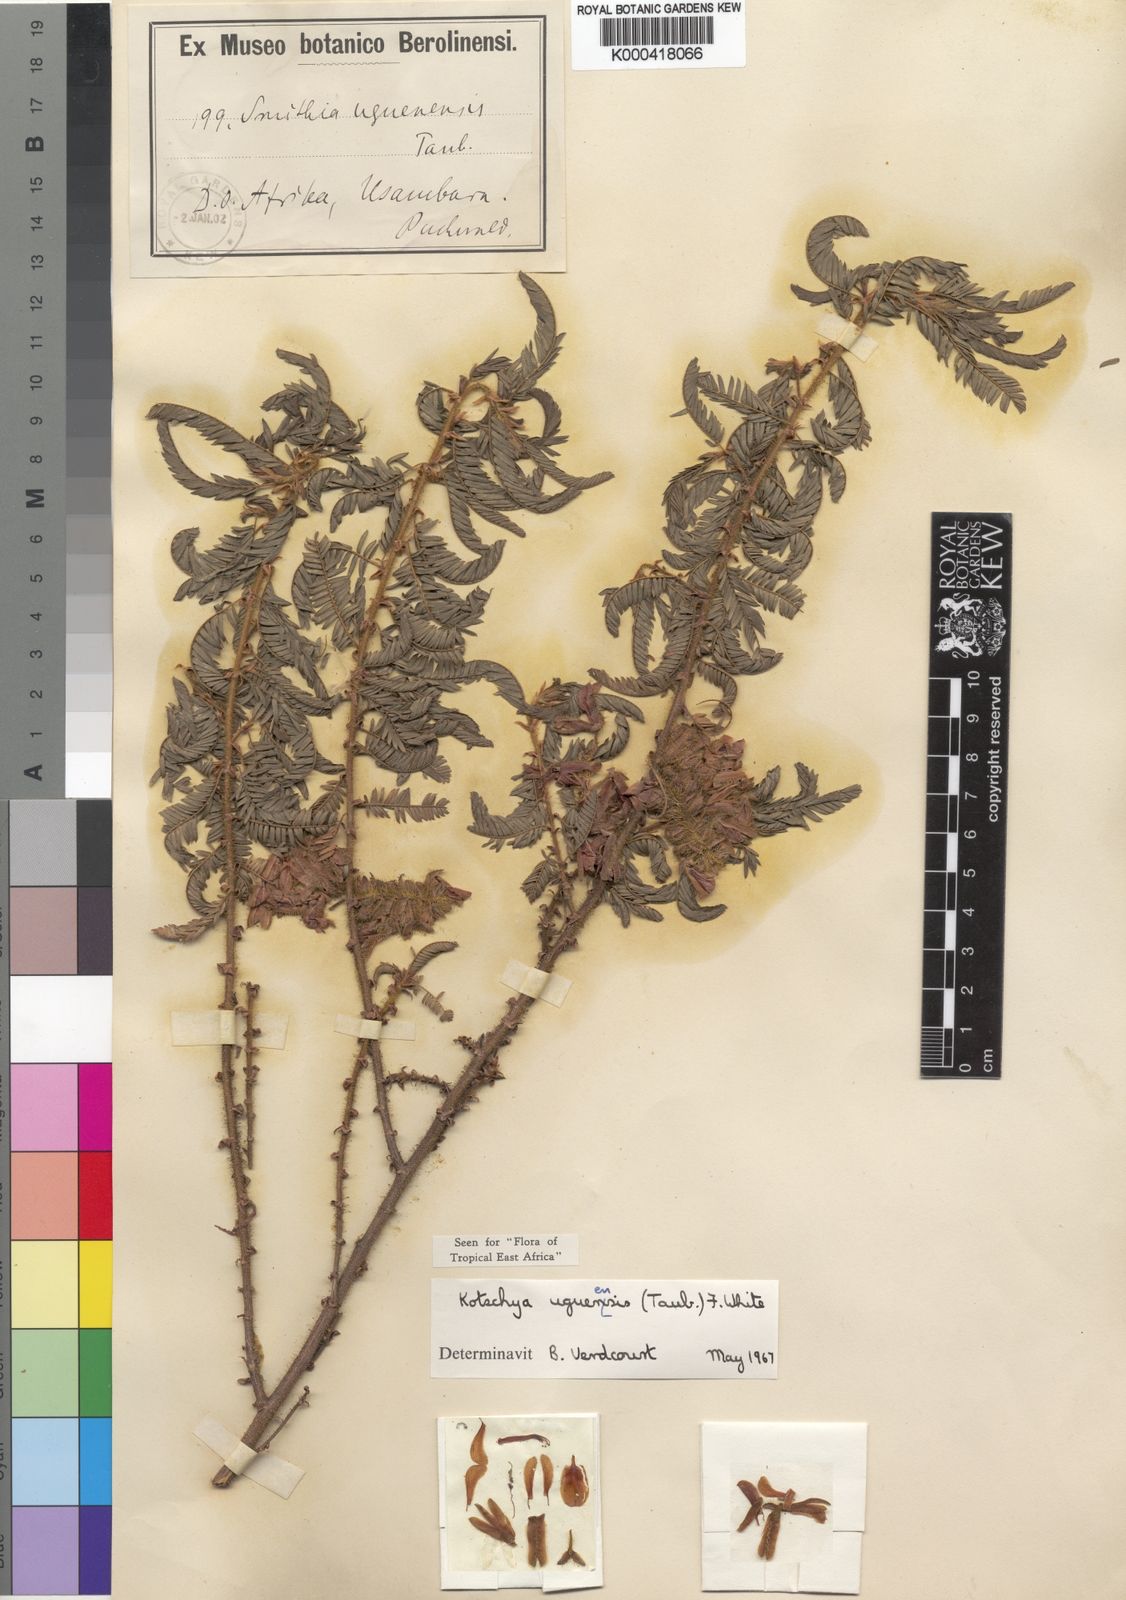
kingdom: Plantae
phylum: Tracheophyta
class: Magnoliopsida
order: Fabales
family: Fabaceae
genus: Kotschya
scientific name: Kotschya uguenensis
